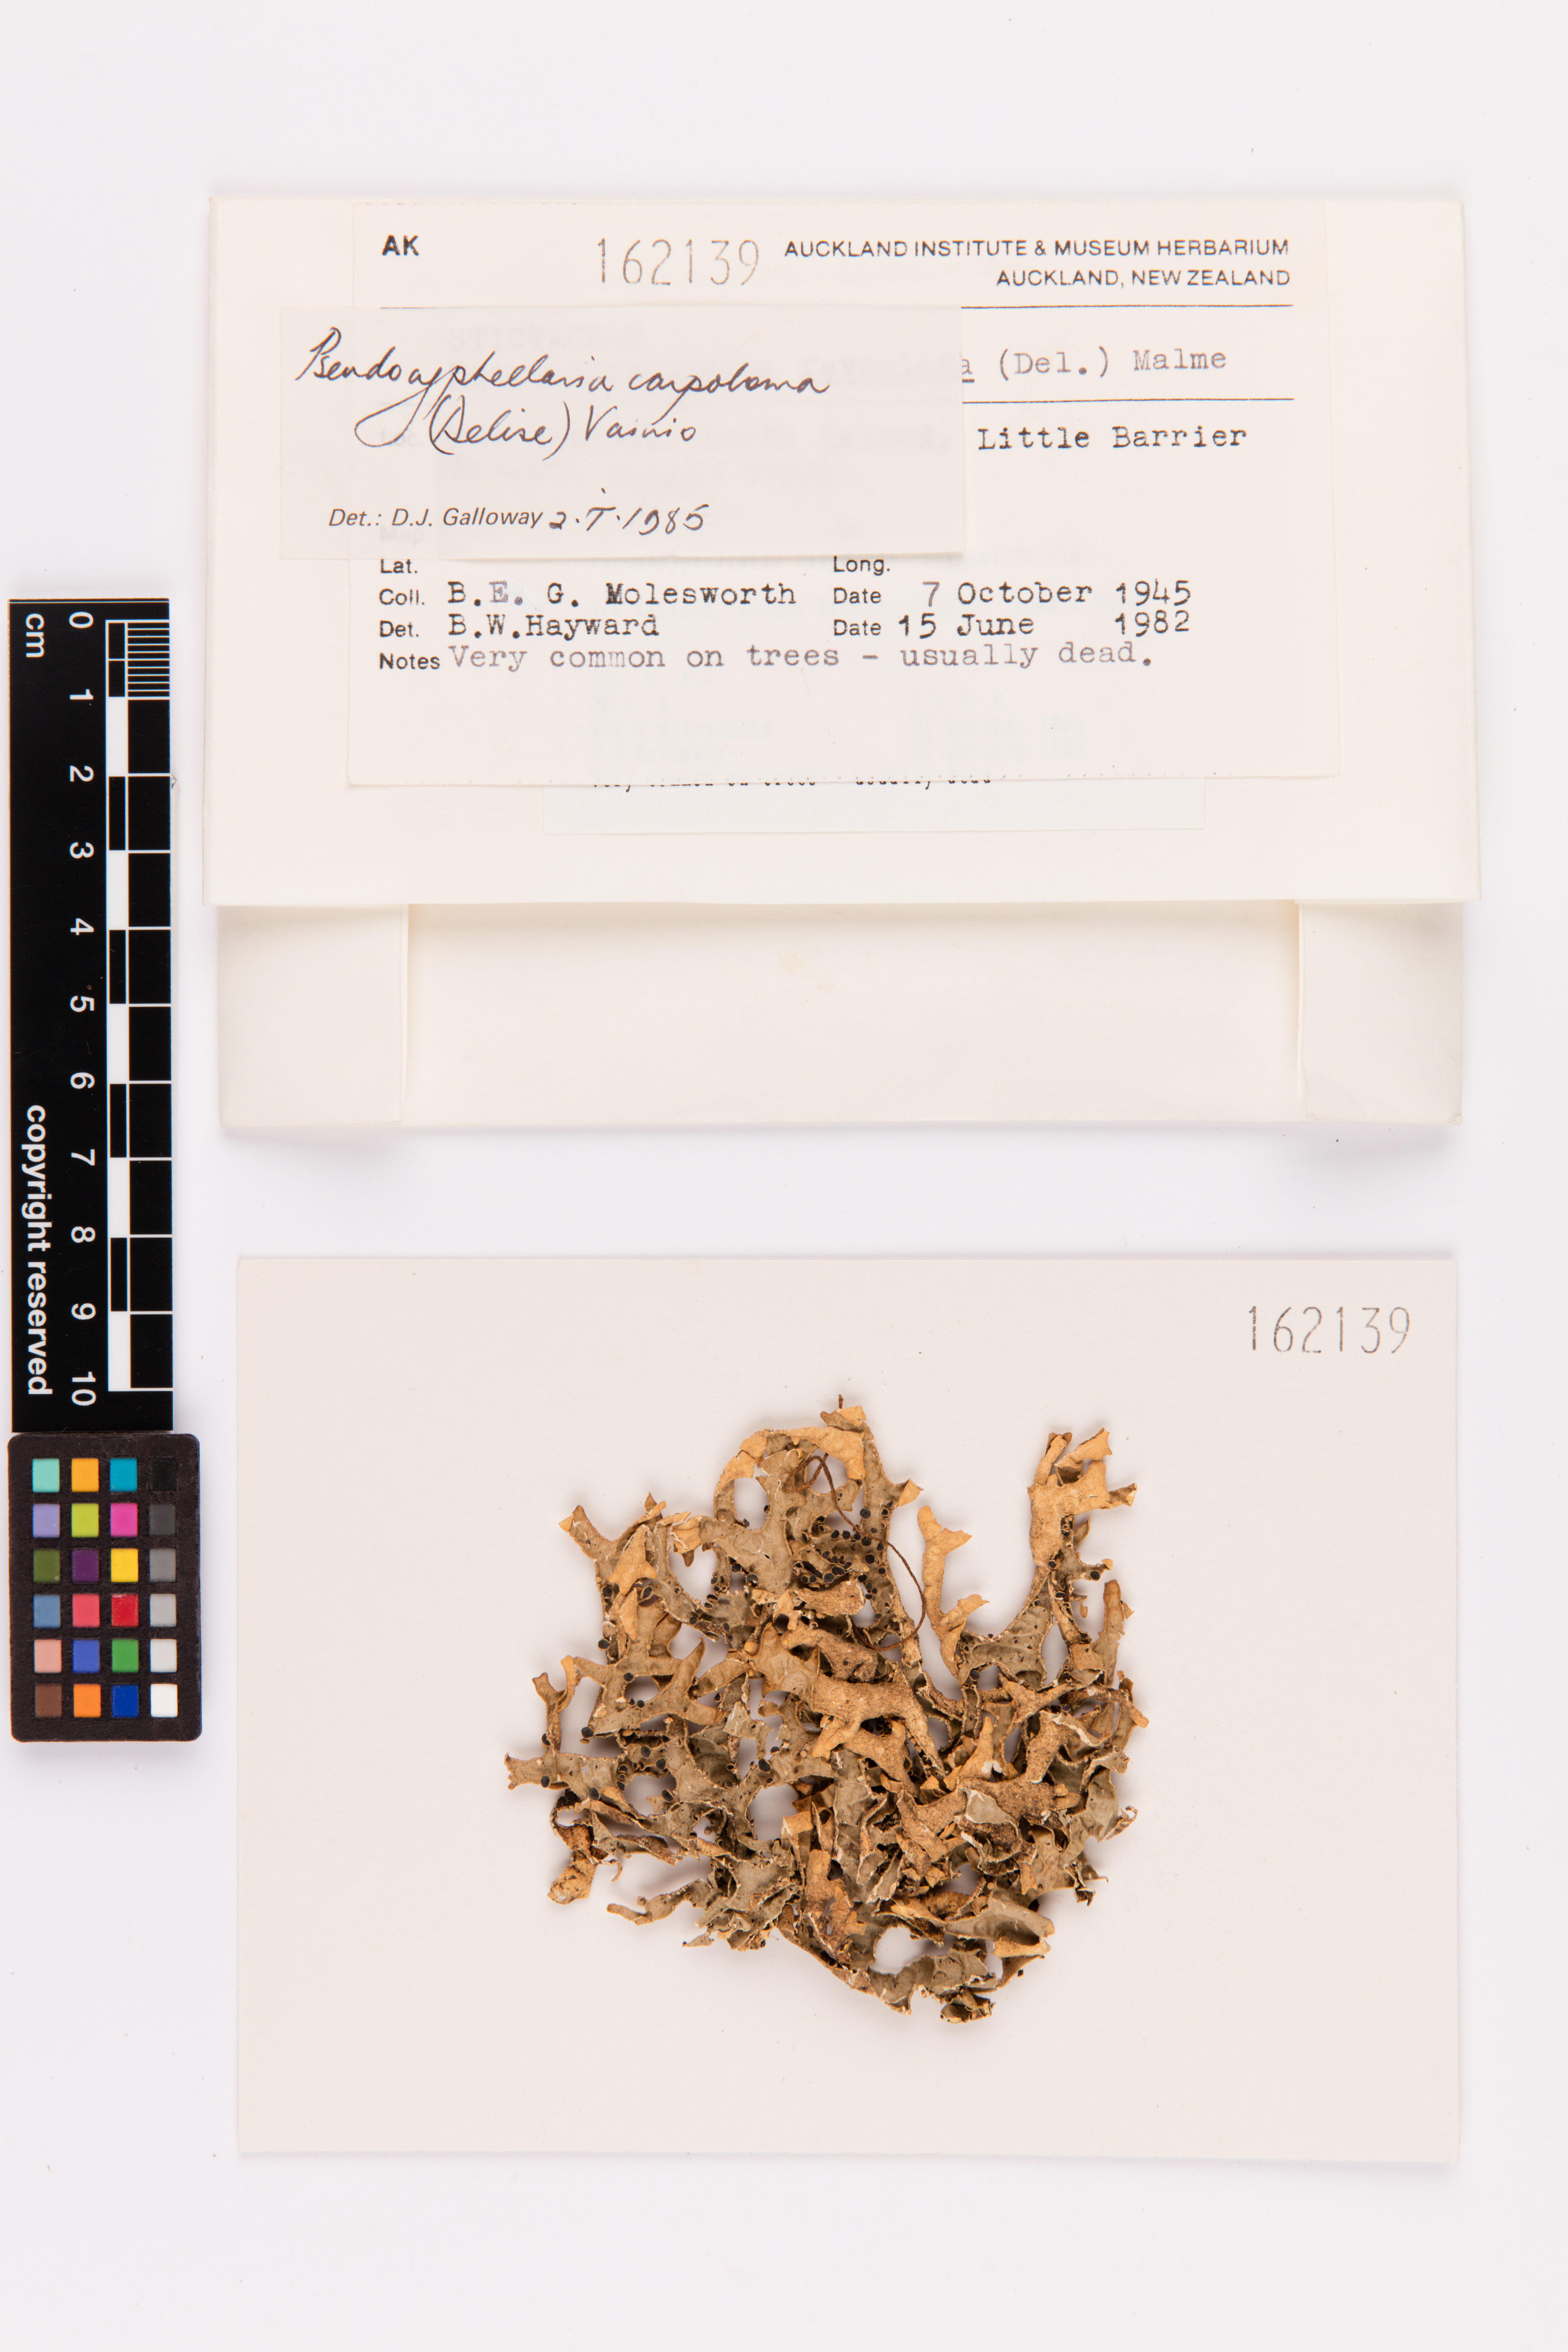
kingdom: Fungi
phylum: Ascomycota
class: Lecanoromycetes
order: Peltigerales
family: Lobariaceae
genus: Pseudocyphellaria
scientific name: Pseudocyphellaria carpoloma
